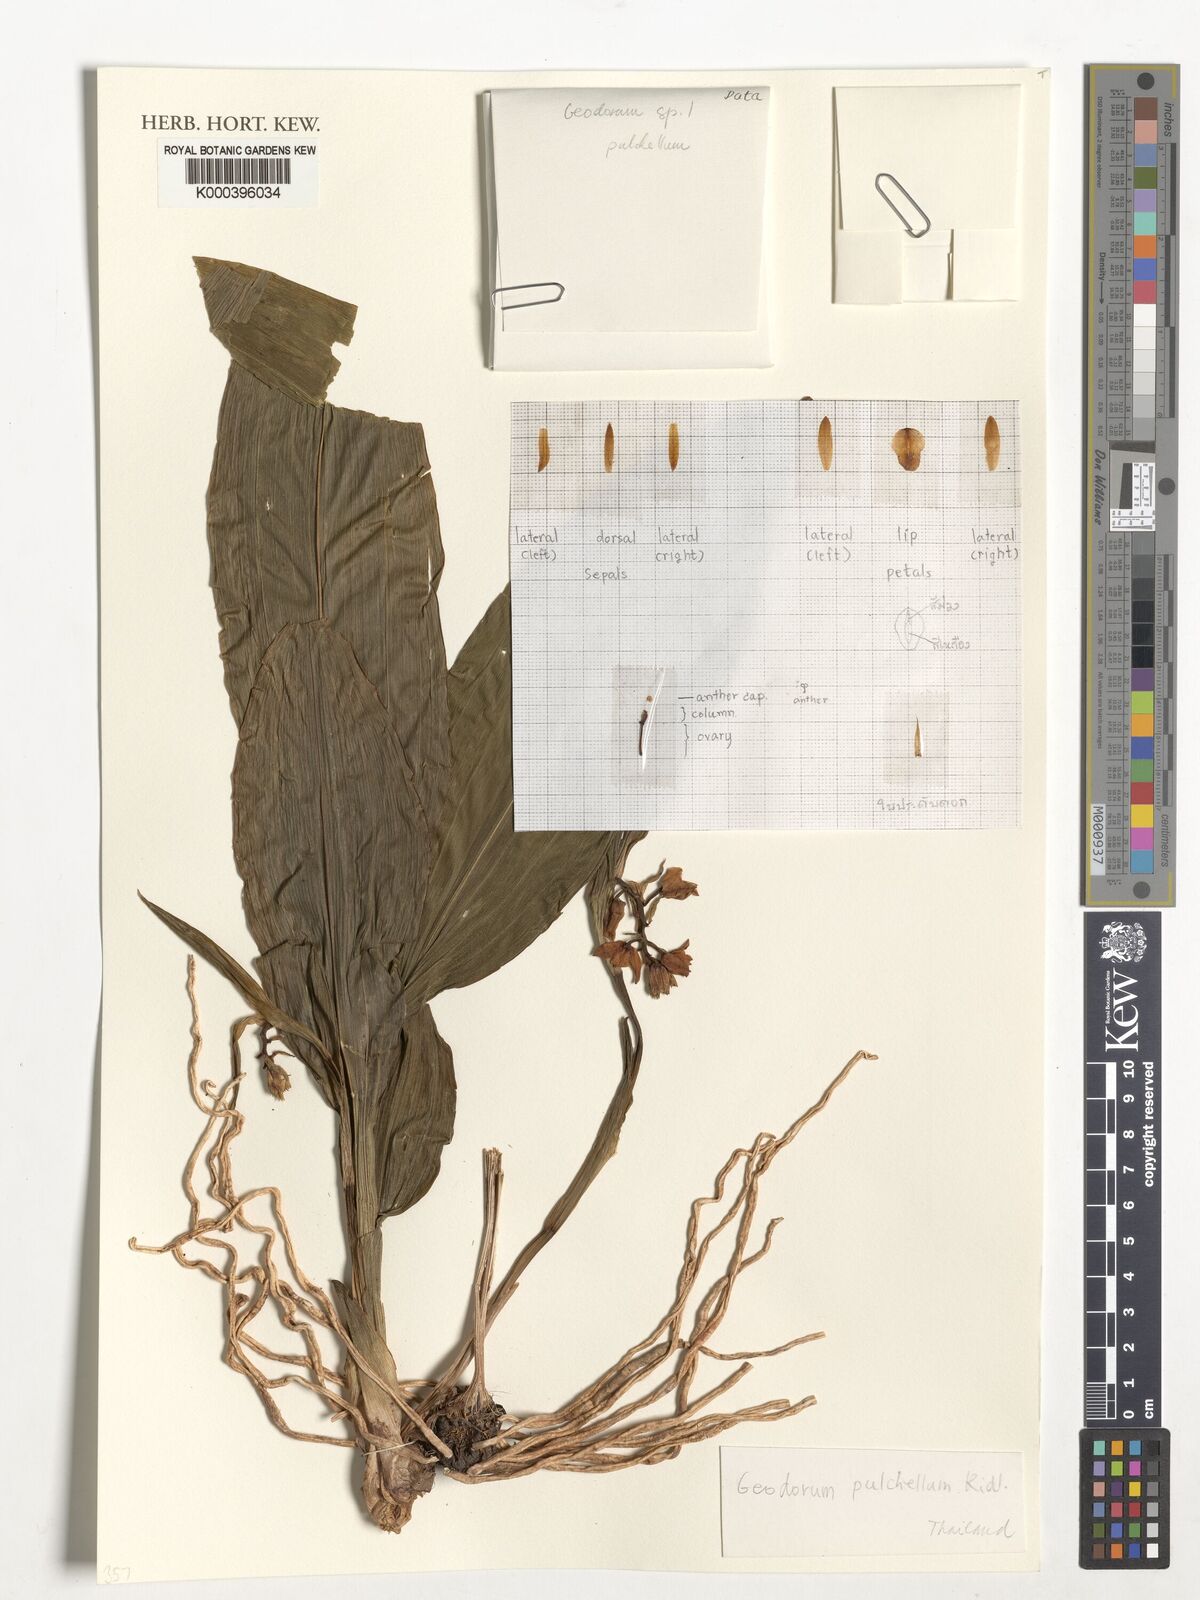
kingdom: Plantae
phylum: Tracheophyta
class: Liliopsida
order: Asparagales
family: Orchidaceae
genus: Eulophia
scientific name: Eulophia recurva
